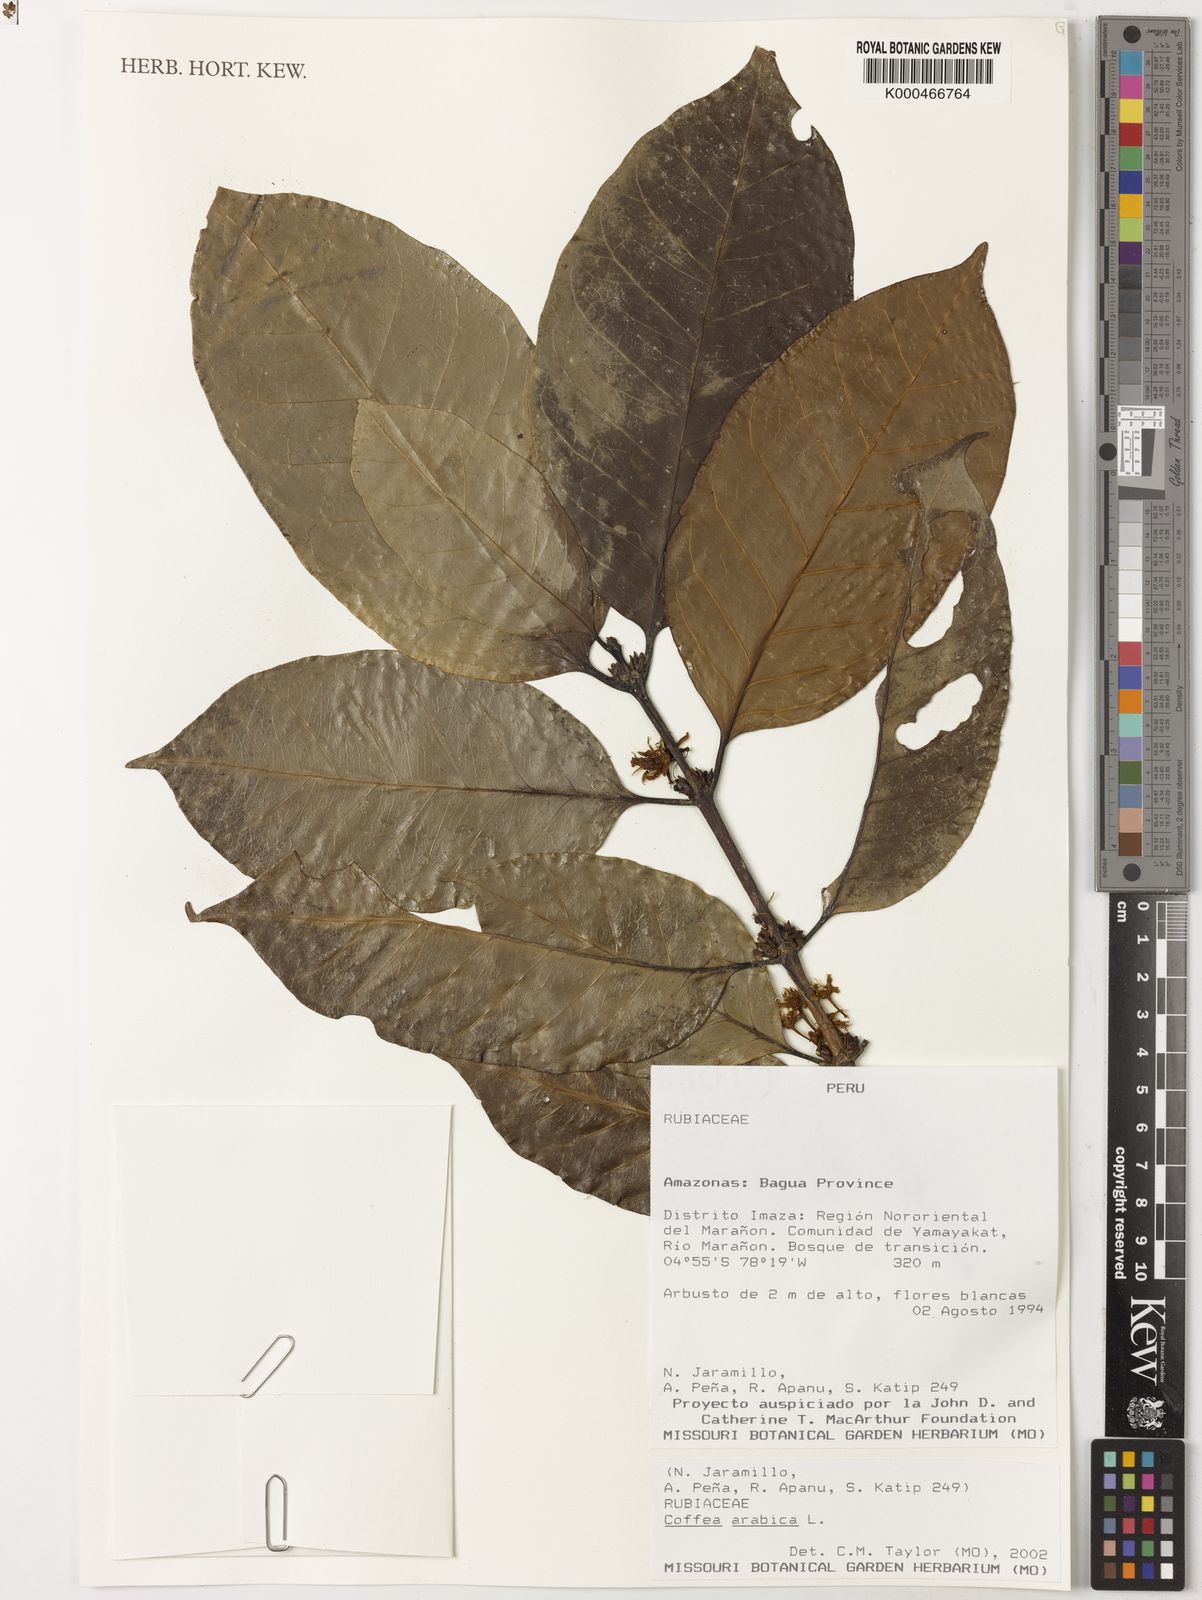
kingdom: Plantae
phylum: Tracheophyta
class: Magnoliopsida
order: Gentianales
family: Rubiaceae
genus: Coffea
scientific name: Coffea arabica
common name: Coffee
